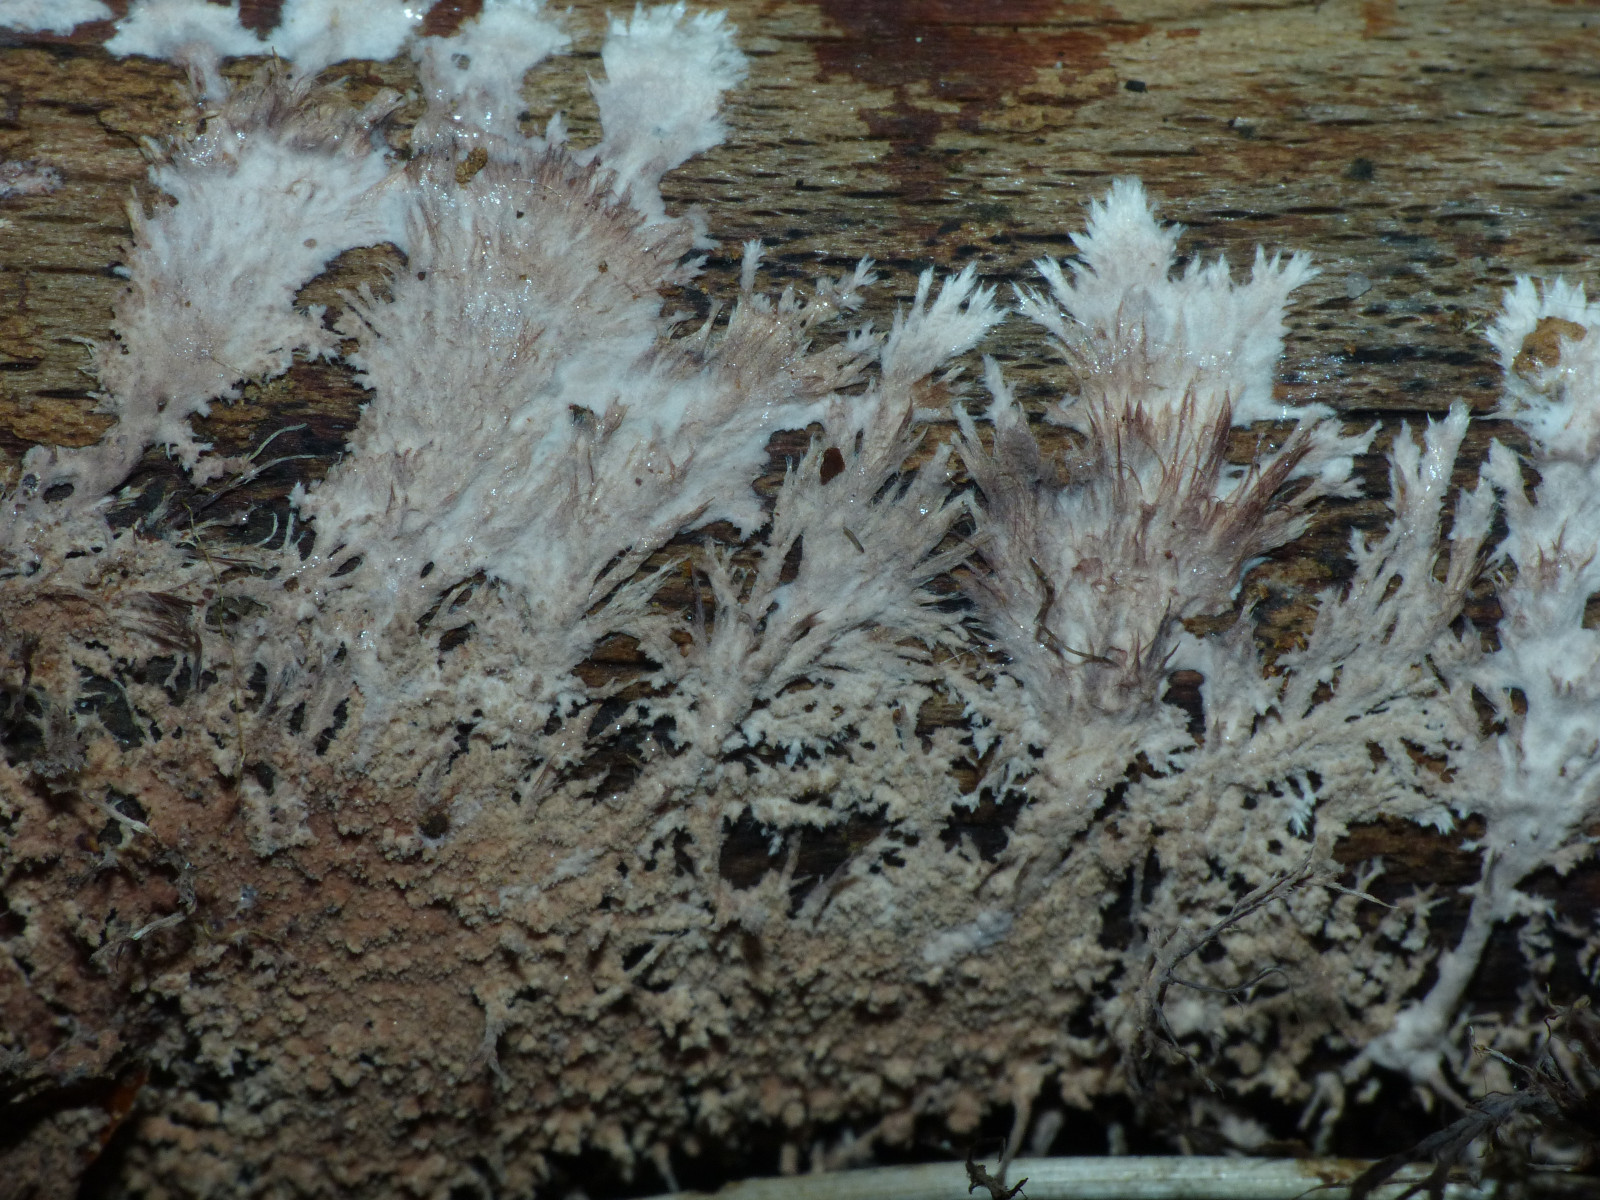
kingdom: Fungi
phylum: Basidiomycota
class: Agaricomycetes
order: Polyporales
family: Steccherinaceae
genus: Steccherinum
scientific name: Steccherinum fimbriatum
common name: trådet skønpig
